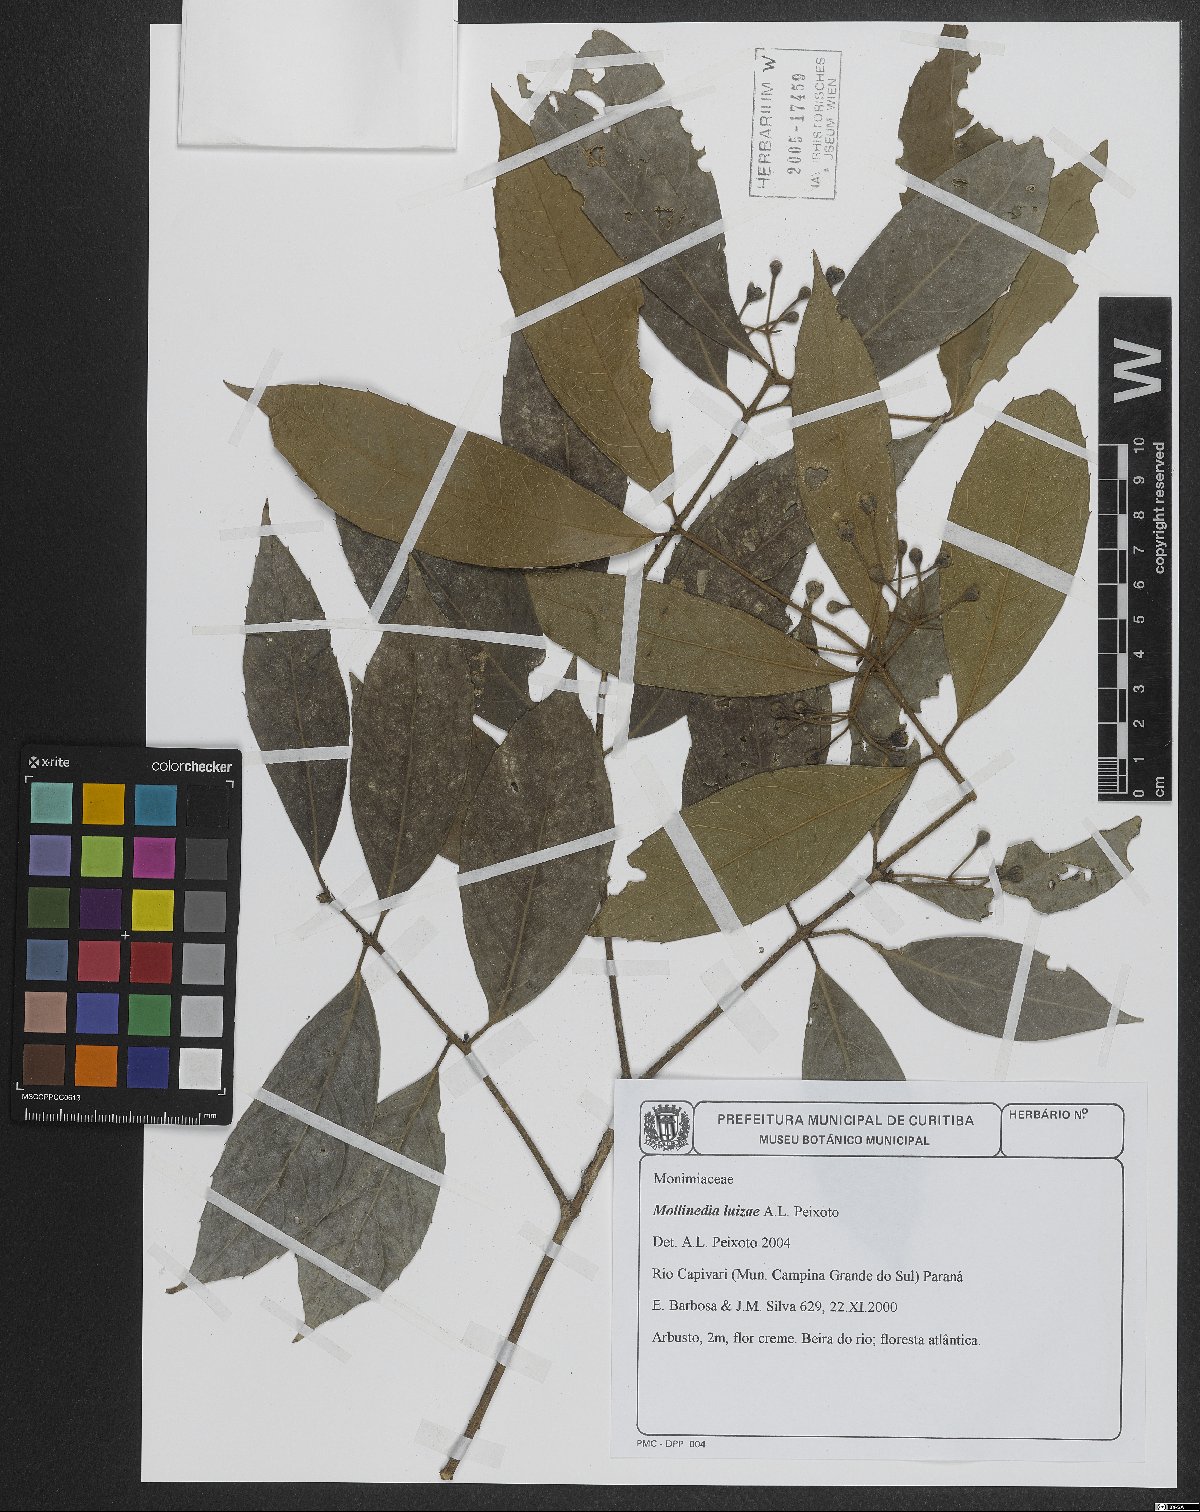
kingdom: Plantae
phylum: Tracheophyta
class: Magnoliopsida
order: Laurales
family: Monimiaceae
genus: Mollinedia
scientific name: Mollinedia luizae
